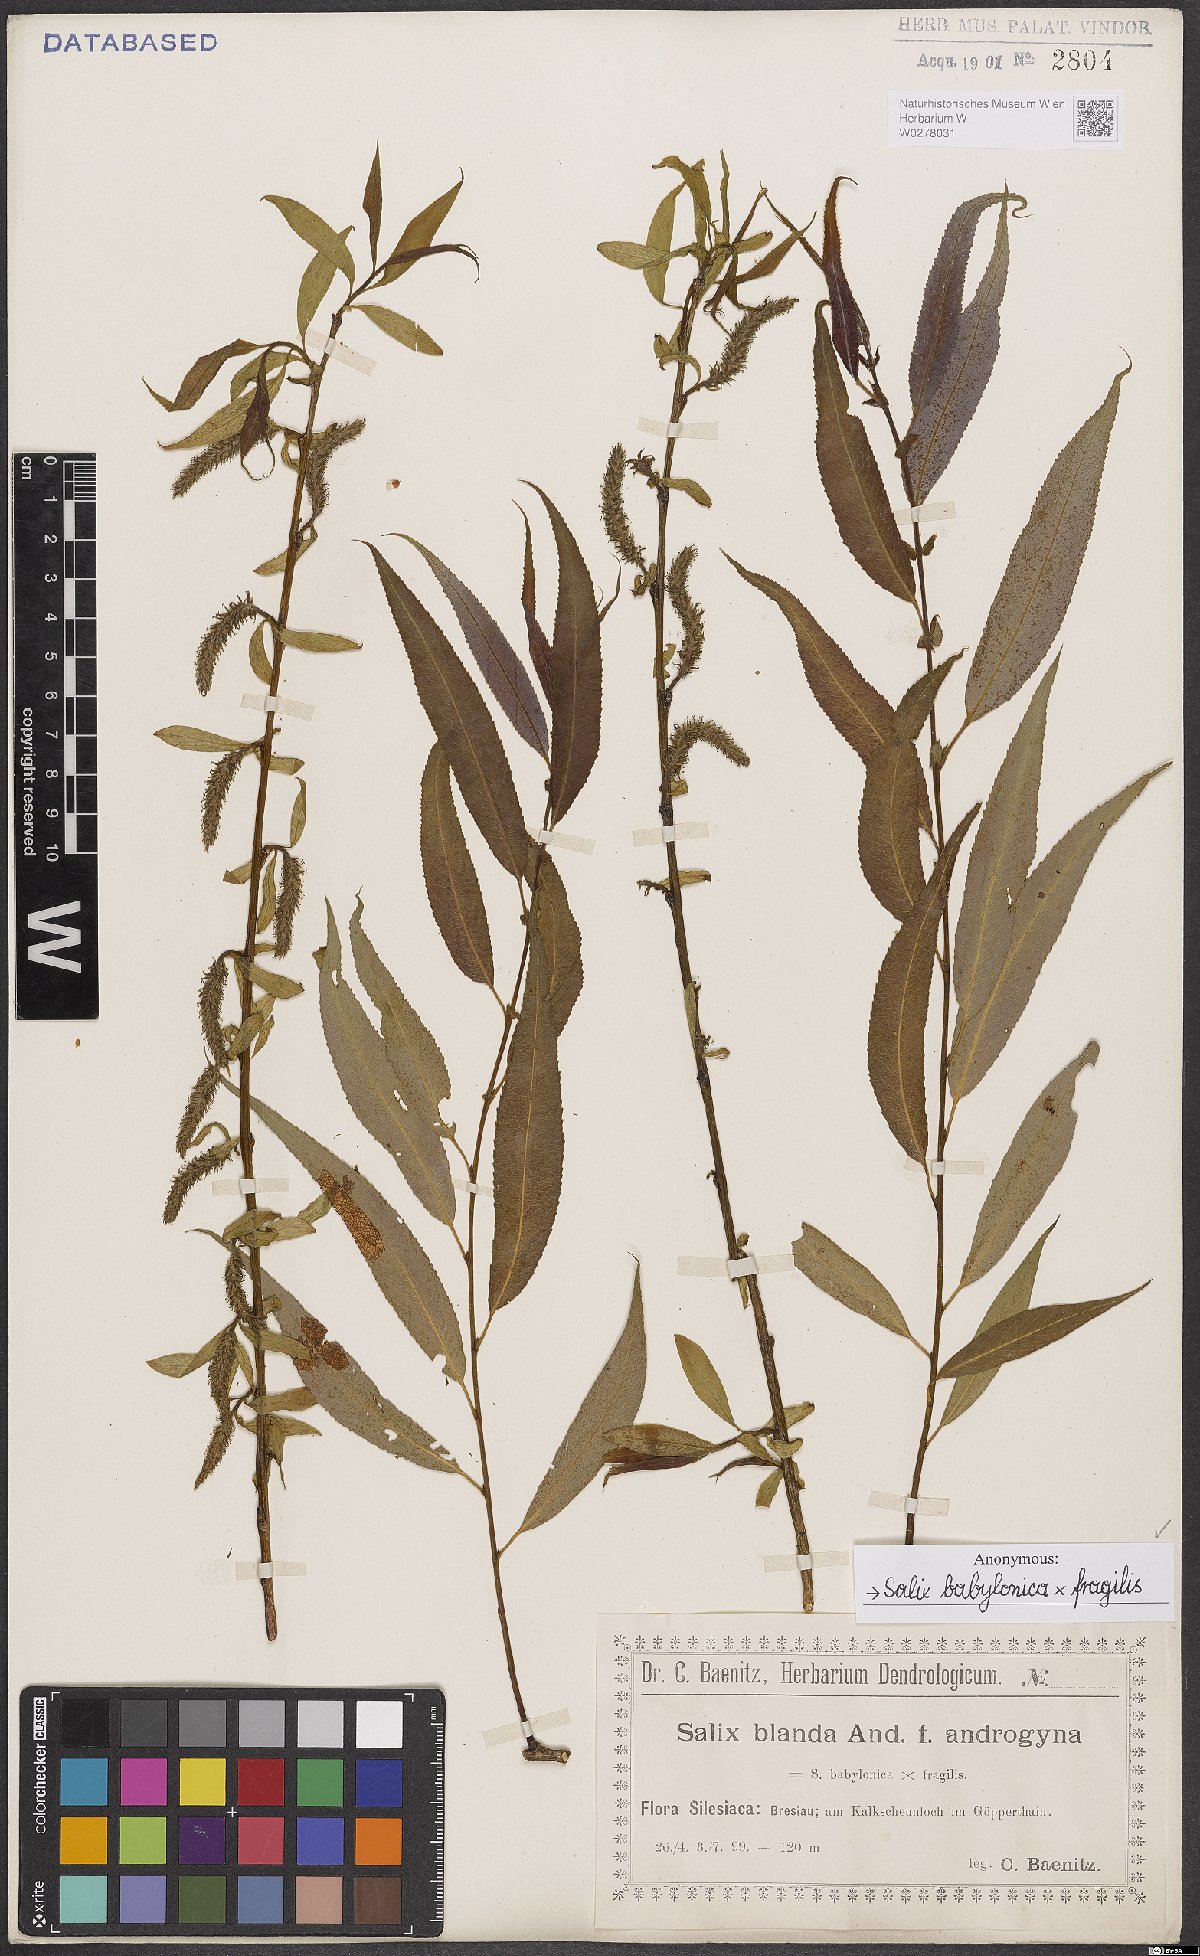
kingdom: Plantae
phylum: Tracheophyta
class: Magnoliopsida
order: Malpighiales
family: Salicaceae
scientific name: Salicaceae
